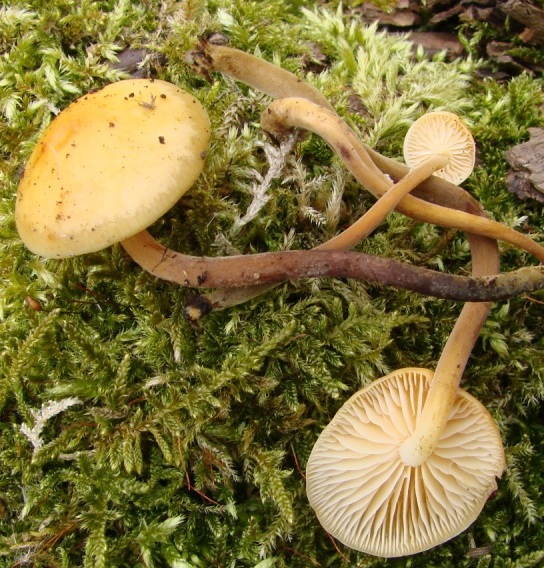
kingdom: Fungi
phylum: Basidiomycota
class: Agaricomycetes
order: Agaricales
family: Physalacriaceae
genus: Flammulina
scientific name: Flammulina elastica
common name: pile-fløjlsfod
